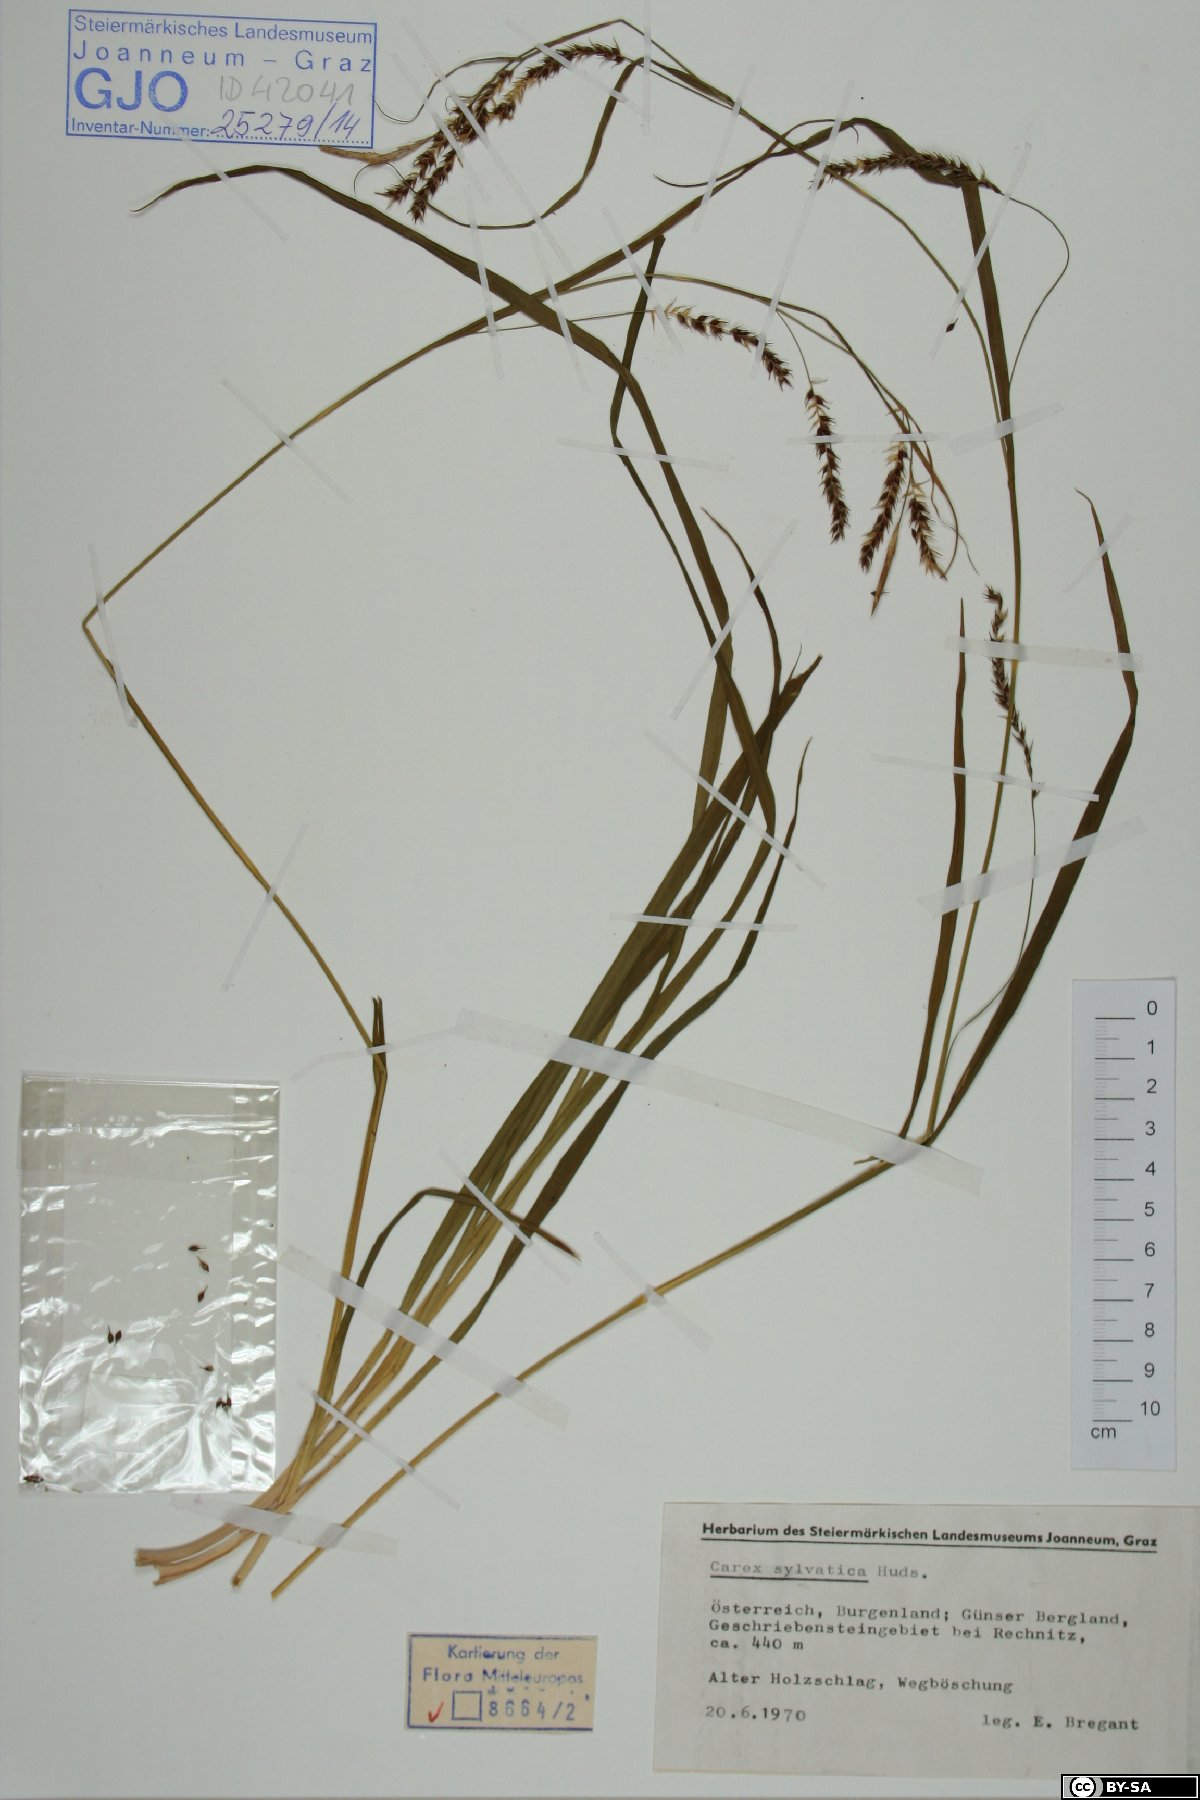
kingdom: Plantae
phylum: Tracheophyta
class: Liliopsida
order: Poales
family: Cyperaceae
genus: Carex
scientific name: Carex sylvatica
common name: Wood-sedge
